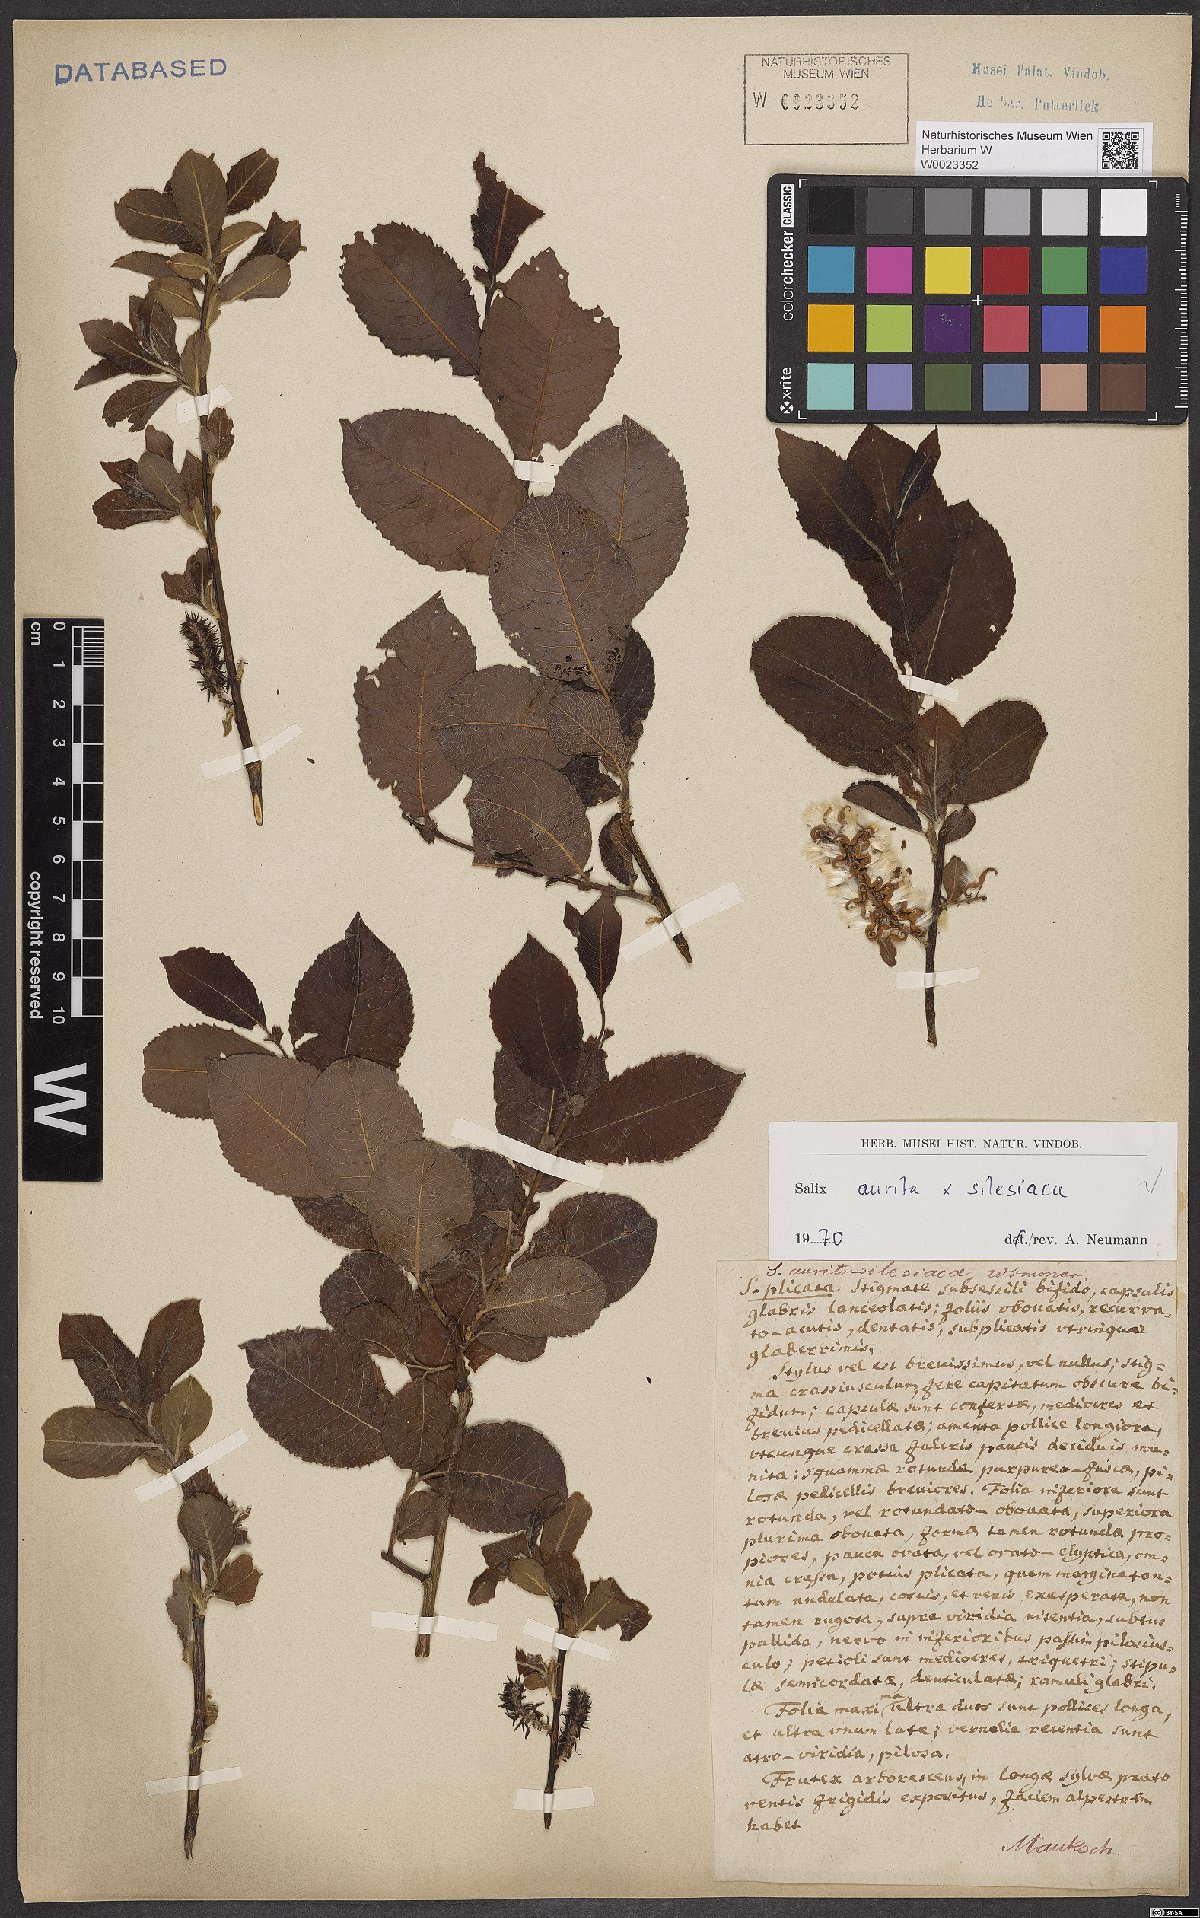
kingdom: Plantae
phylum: Tracheophyta
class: Magnoliopsida
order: Malpighiales
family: Salicaceae
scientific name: Salicaceae
